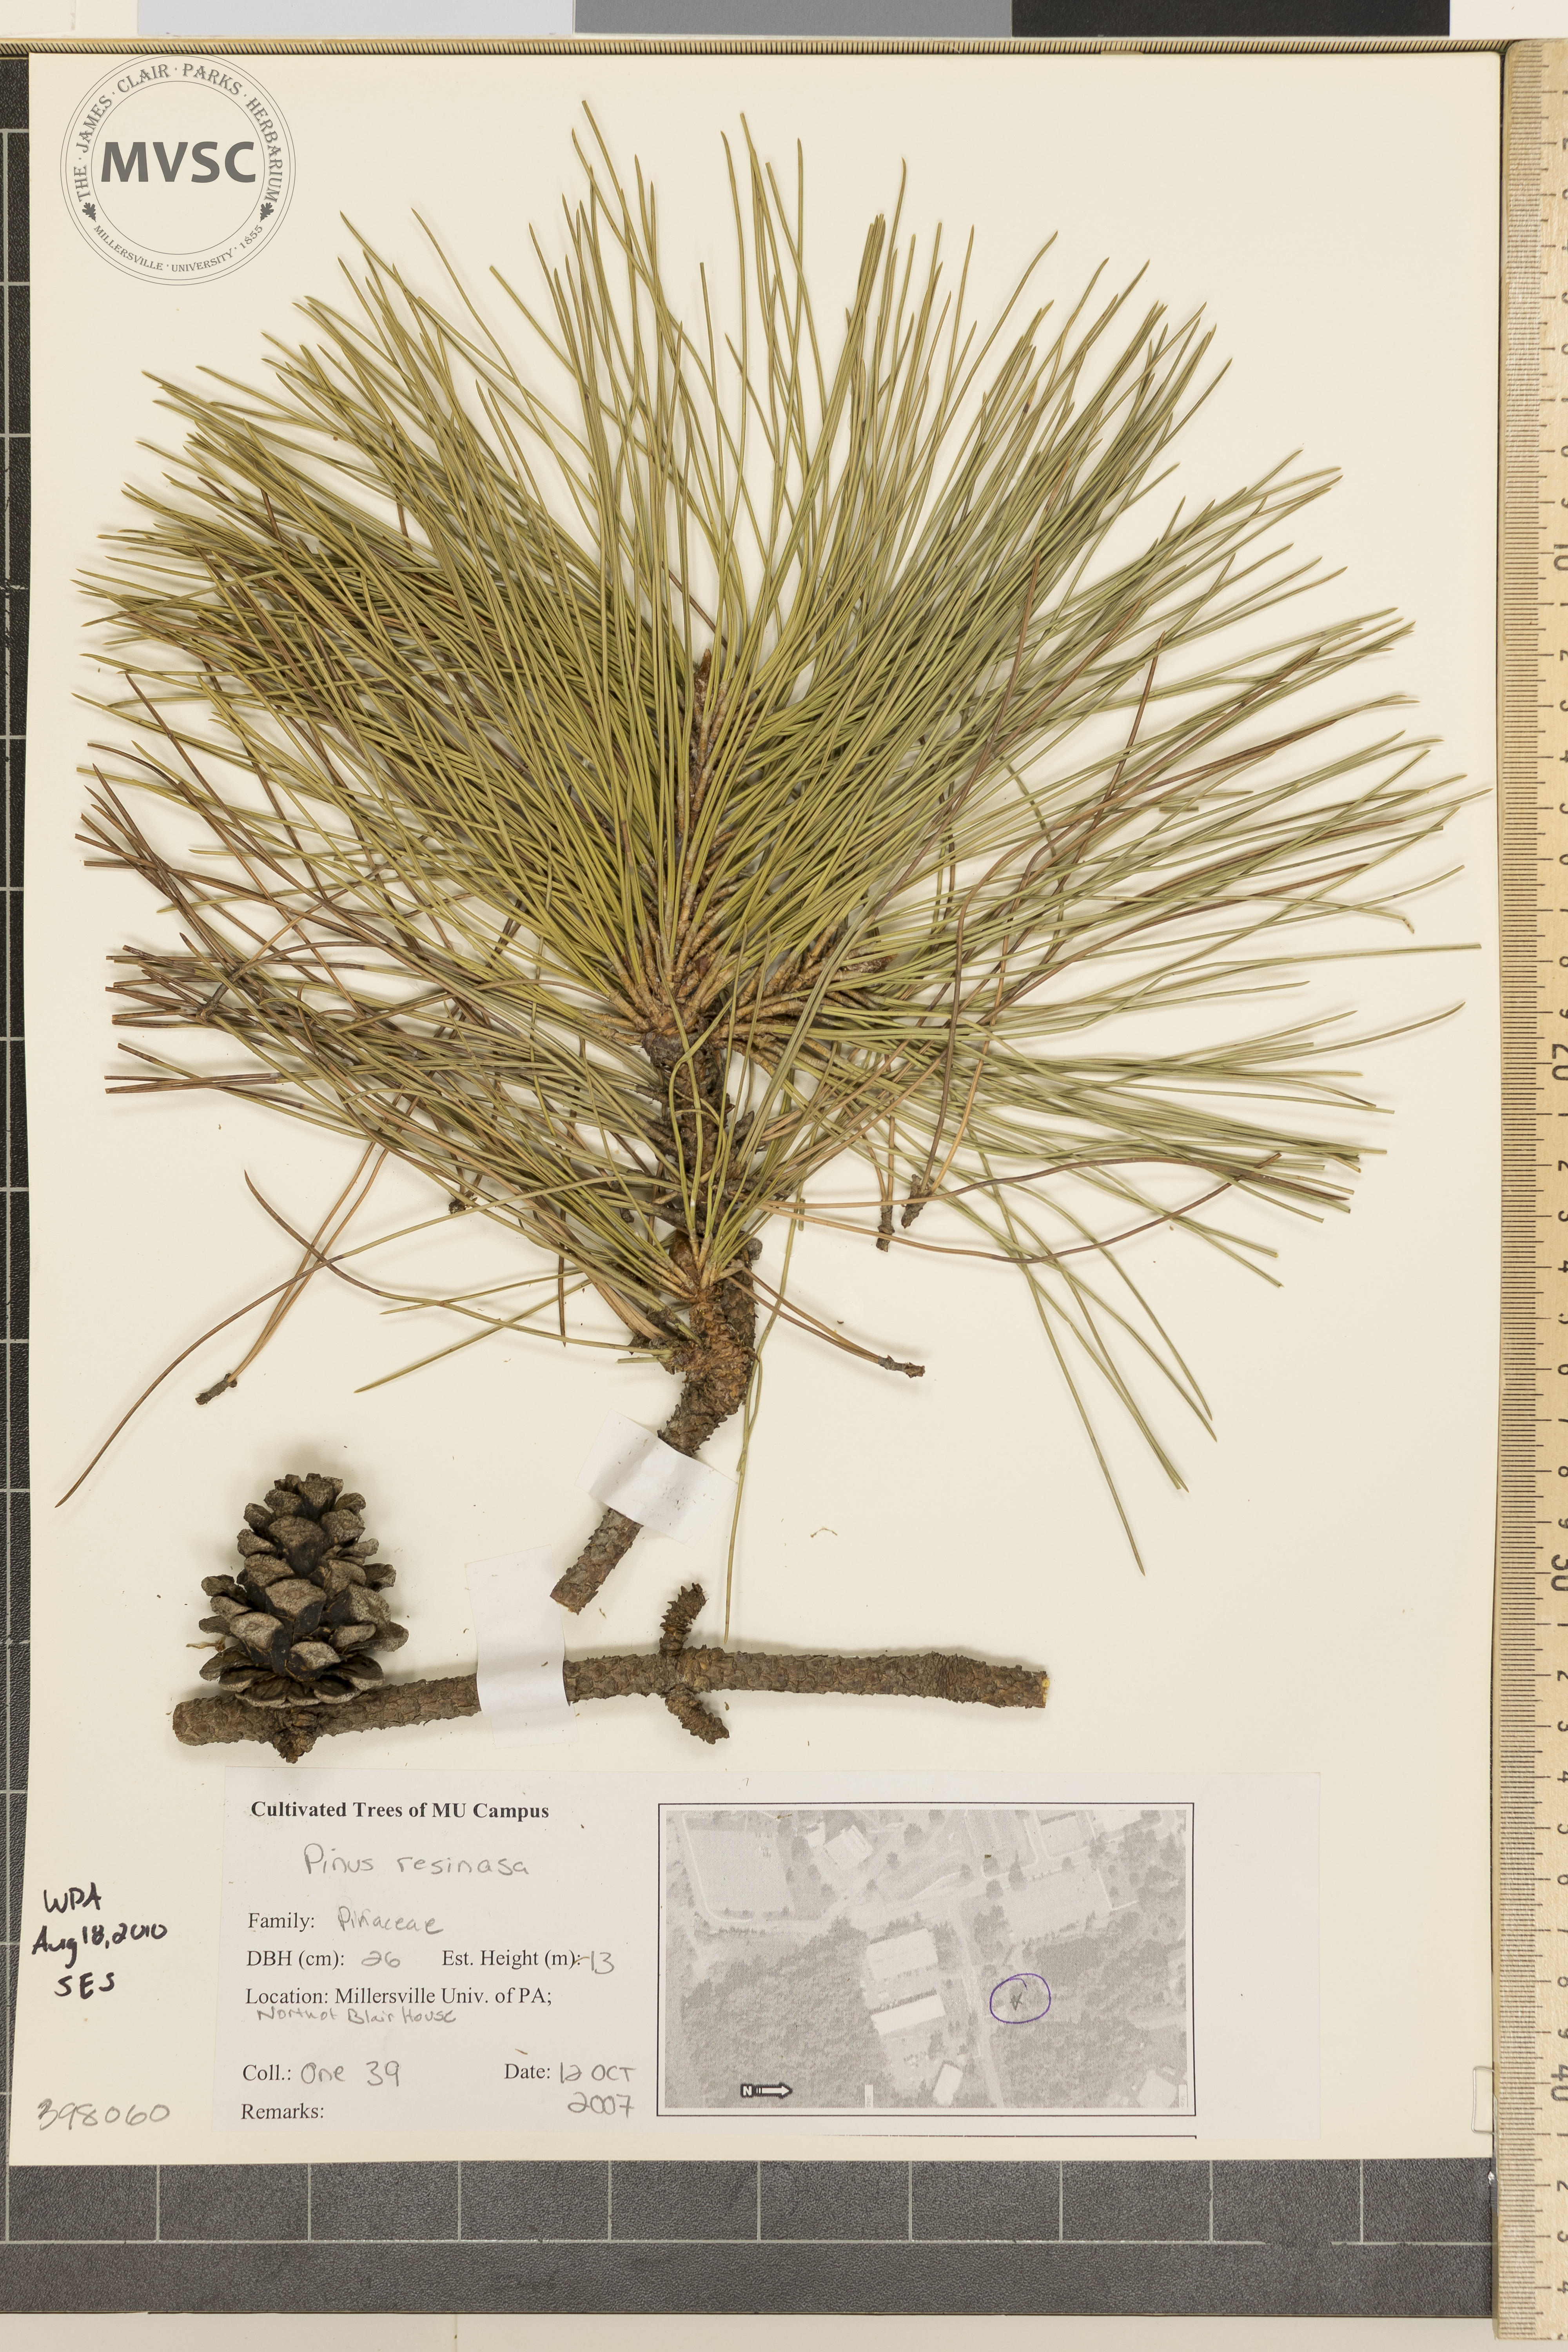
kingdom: Plantae
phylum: Tracheophyta
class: Pinopsida
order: Pinales
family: Pinaceae
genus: Pinus
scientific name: Pinus resinosa
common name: Norway pine
